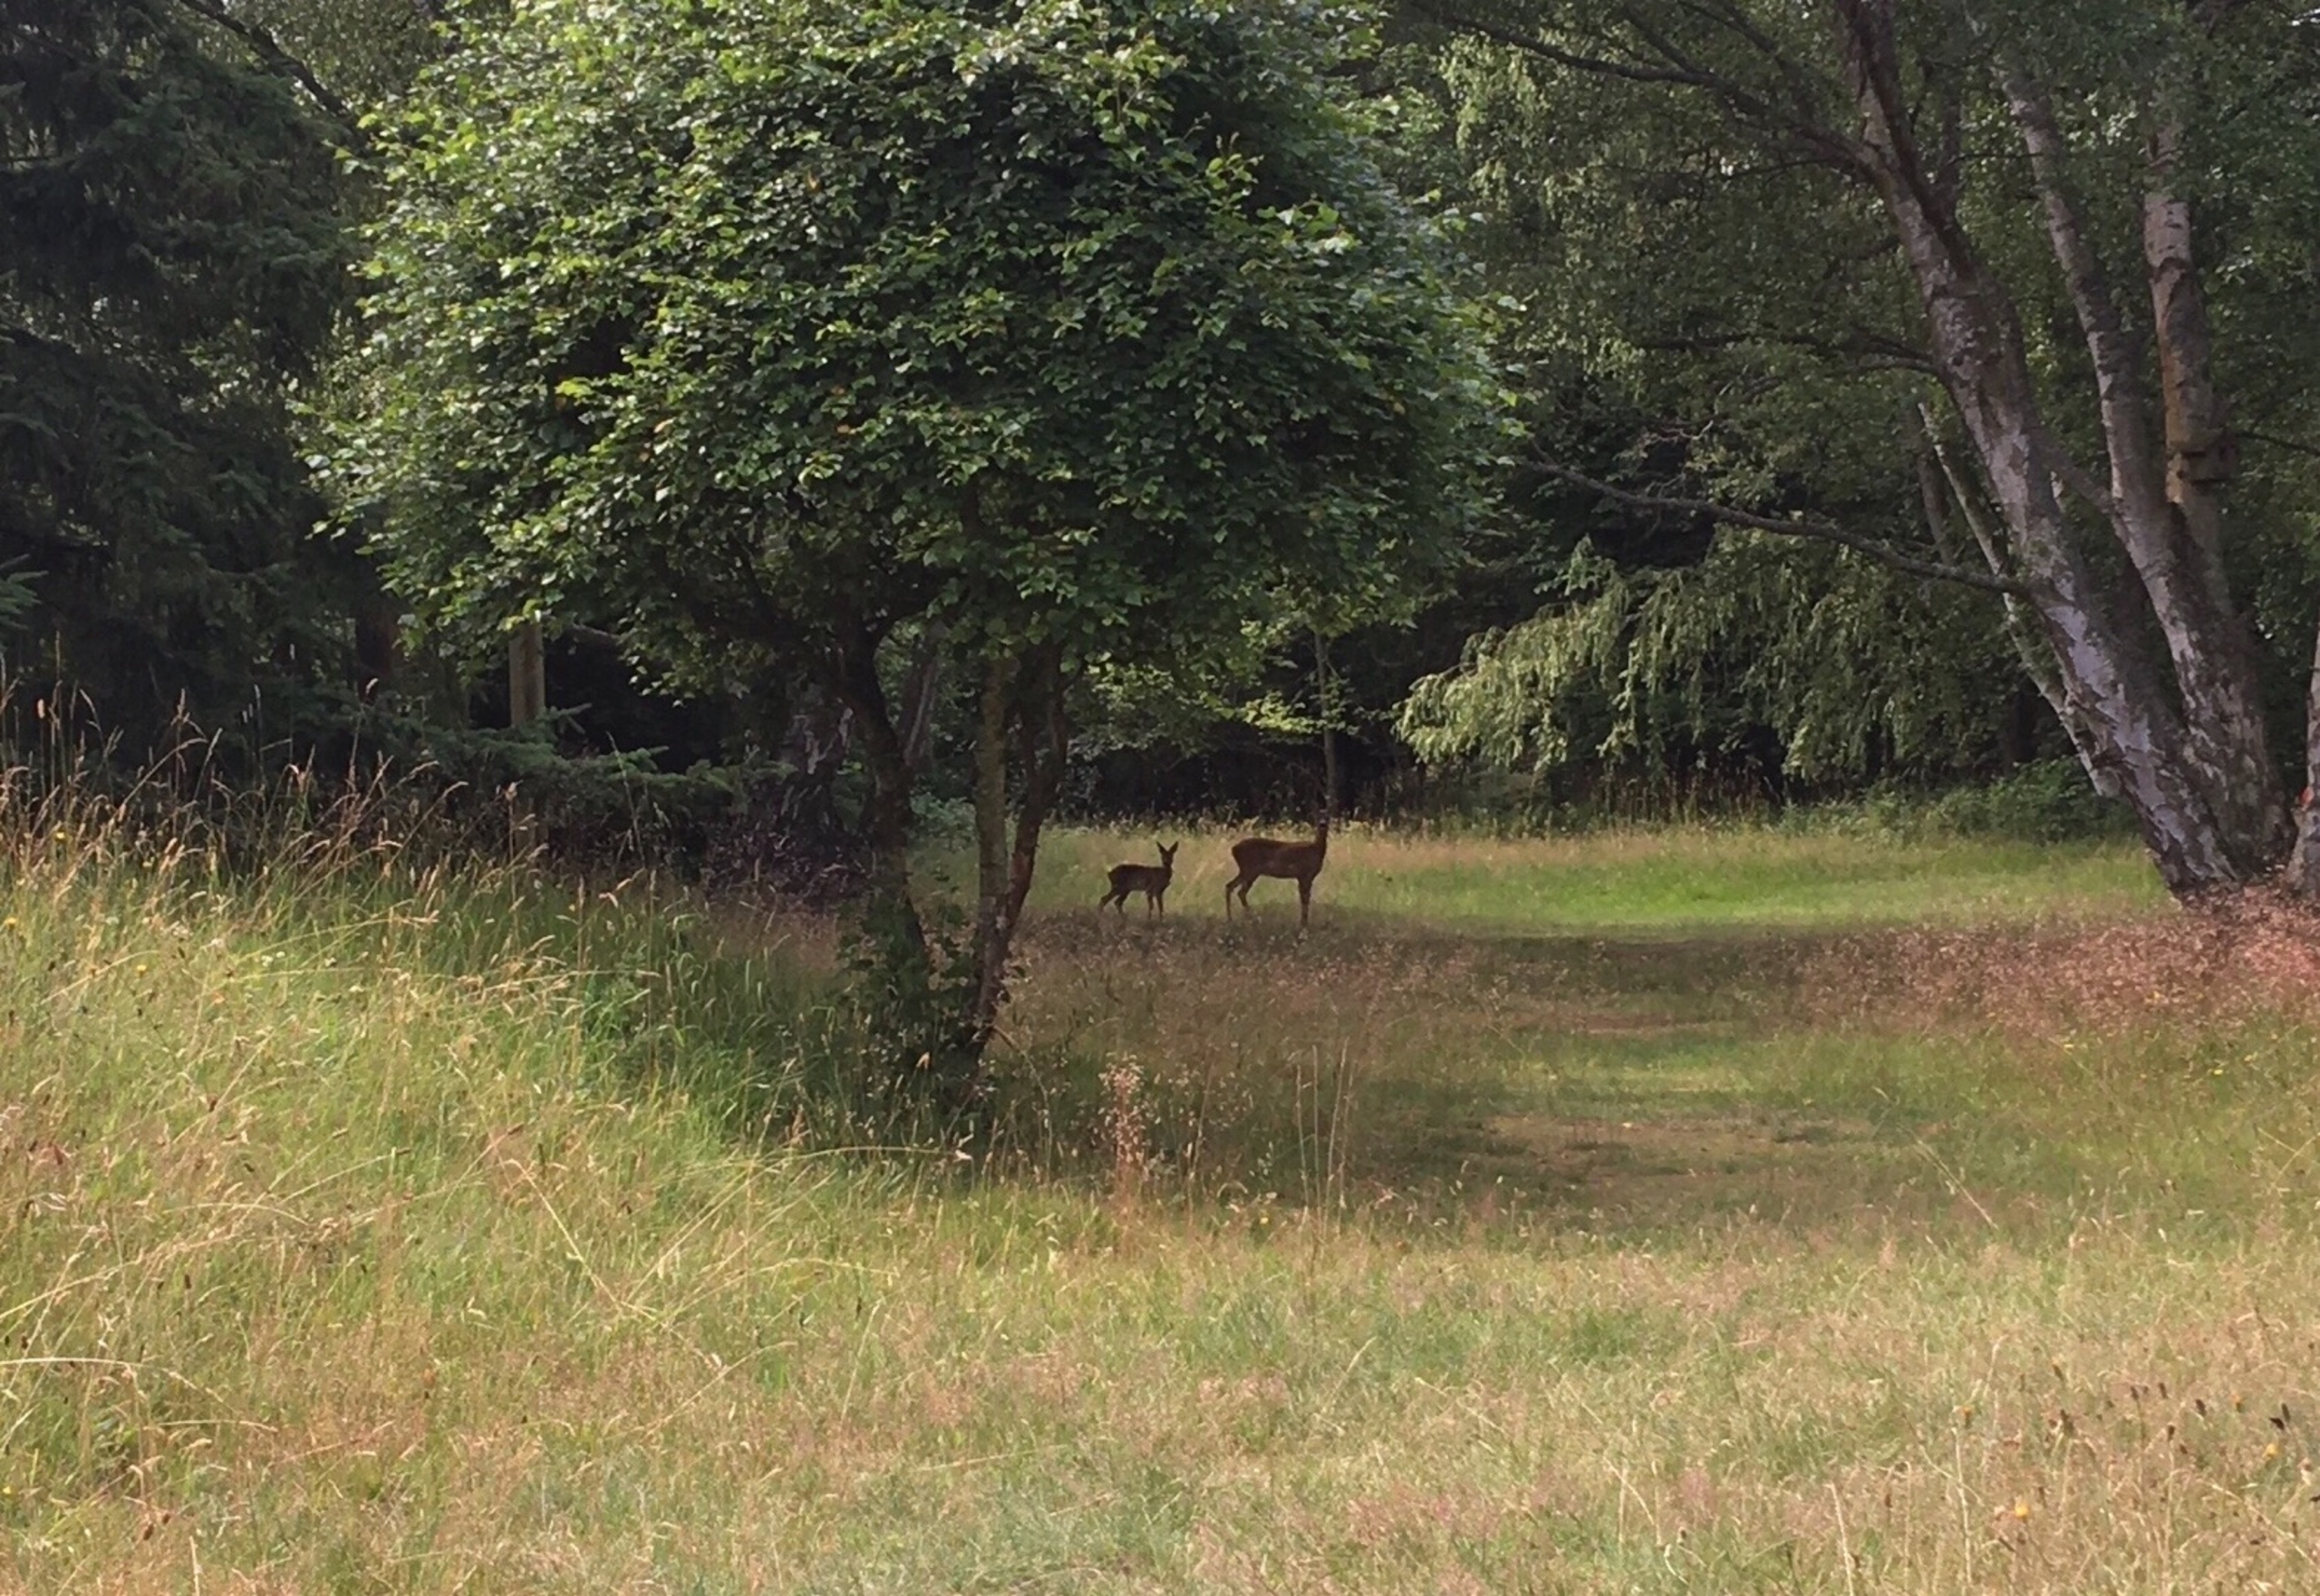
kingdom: Animalia
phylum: Chordata
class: Mammalia
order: Artiodactyla
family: Cervidae
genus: Capreolus
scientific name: Capreolus capreolus
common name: Rådyr
